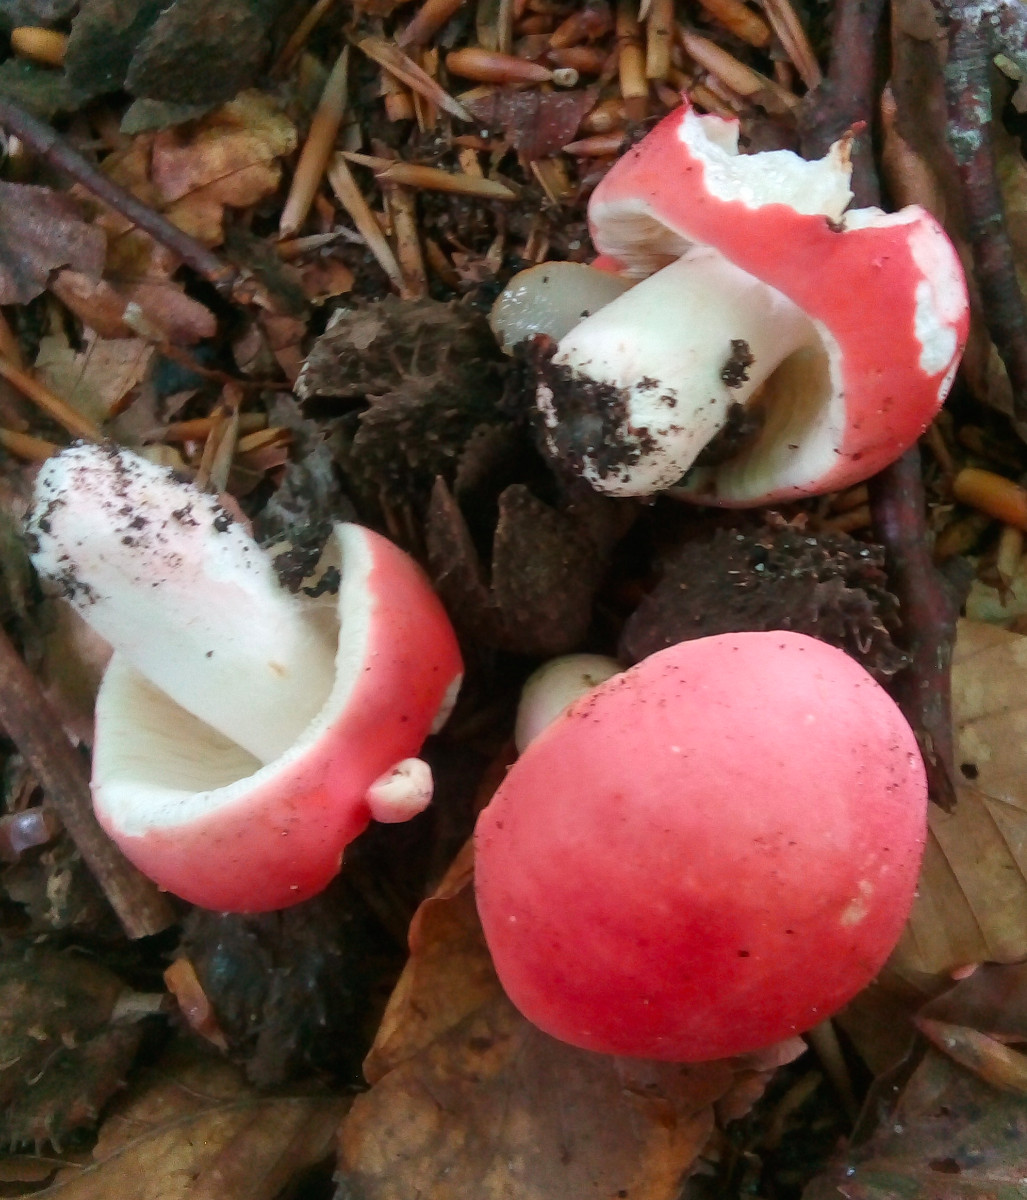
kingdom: Fungi
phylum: Basidiomycota
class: Agaricomycetes
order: Russulales
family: Russulaceae
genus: Russula
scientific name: Russula rosea
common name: fastkødet skørhat
